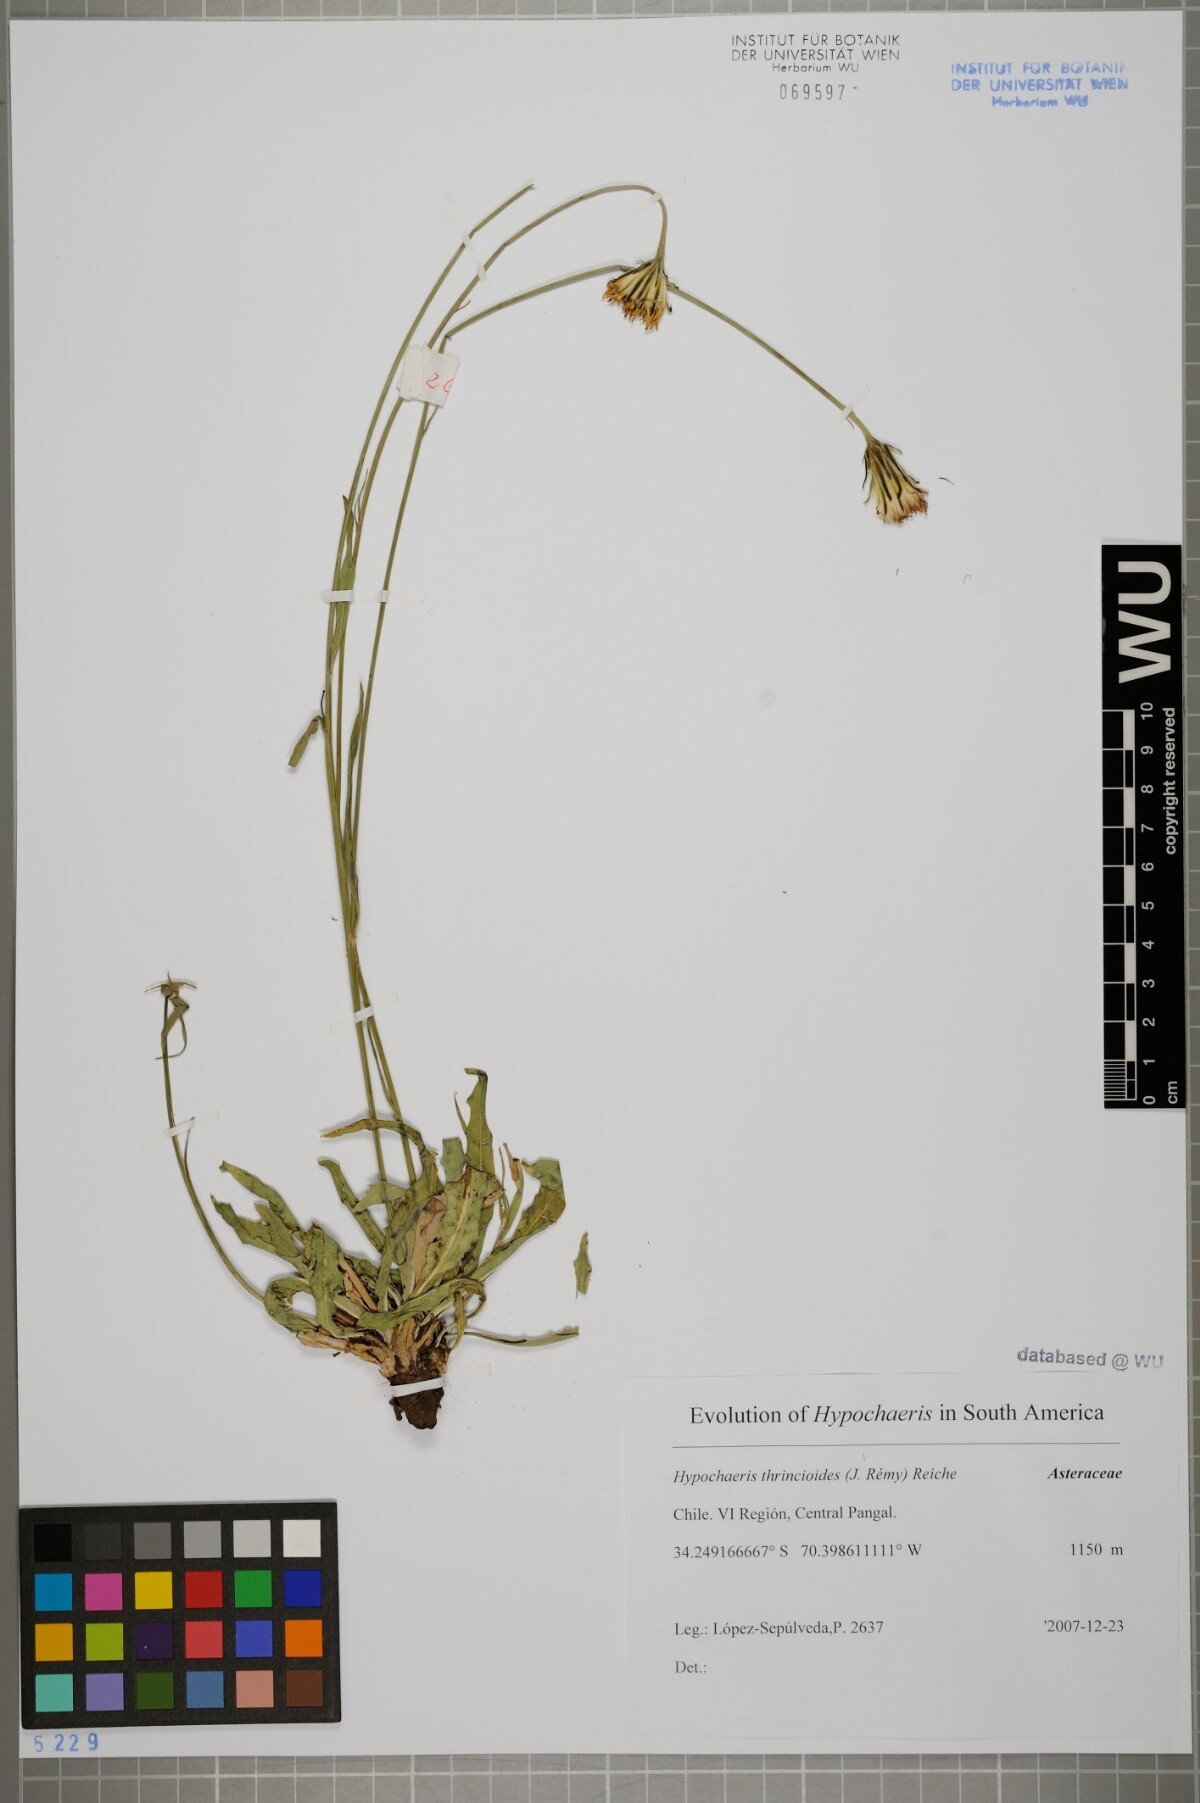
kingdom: Plantae
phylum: Tracheophyta
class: Magnoliopsida
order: Asterales
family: Asteraceae
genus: Hypochaeris
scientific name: Hypochaeris apargioides
